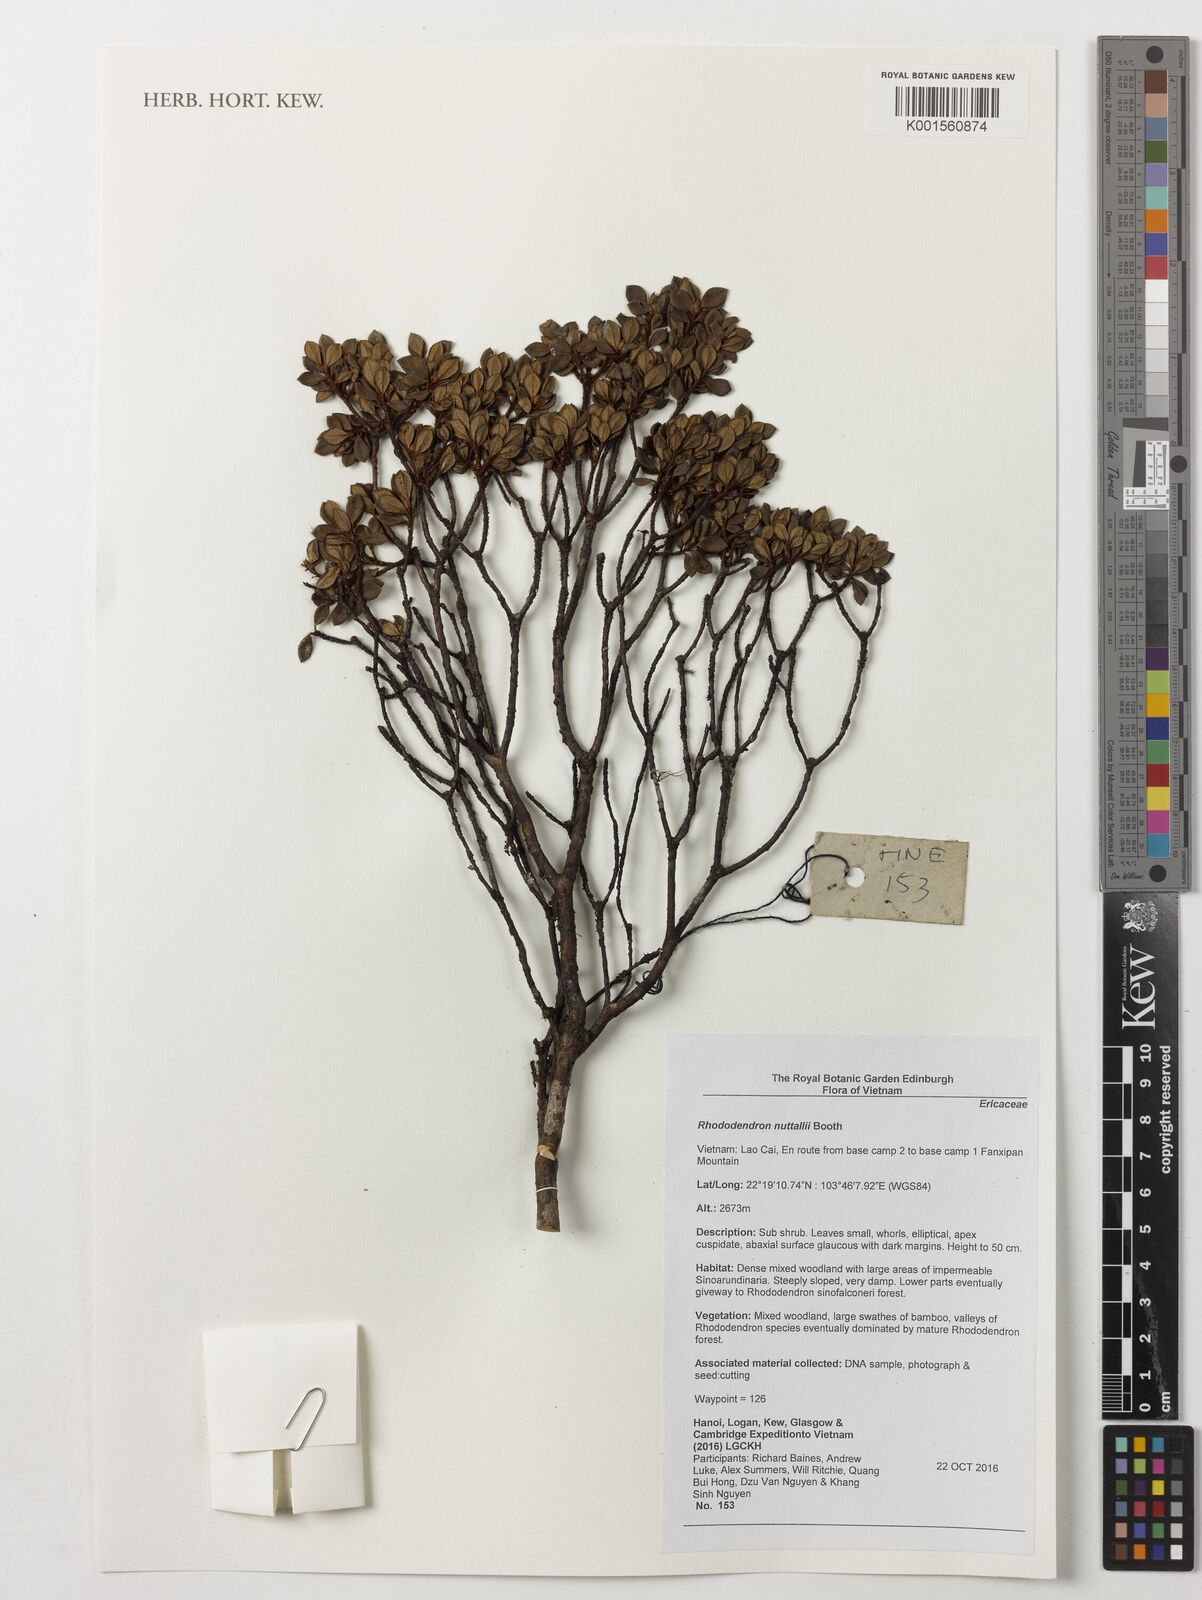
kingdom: Plantae
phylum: Tracheophyta
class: Magnoliopsida
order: Ericales
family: Ericaceae
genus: Rhododendron
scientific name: Rhododendron nuttallii
